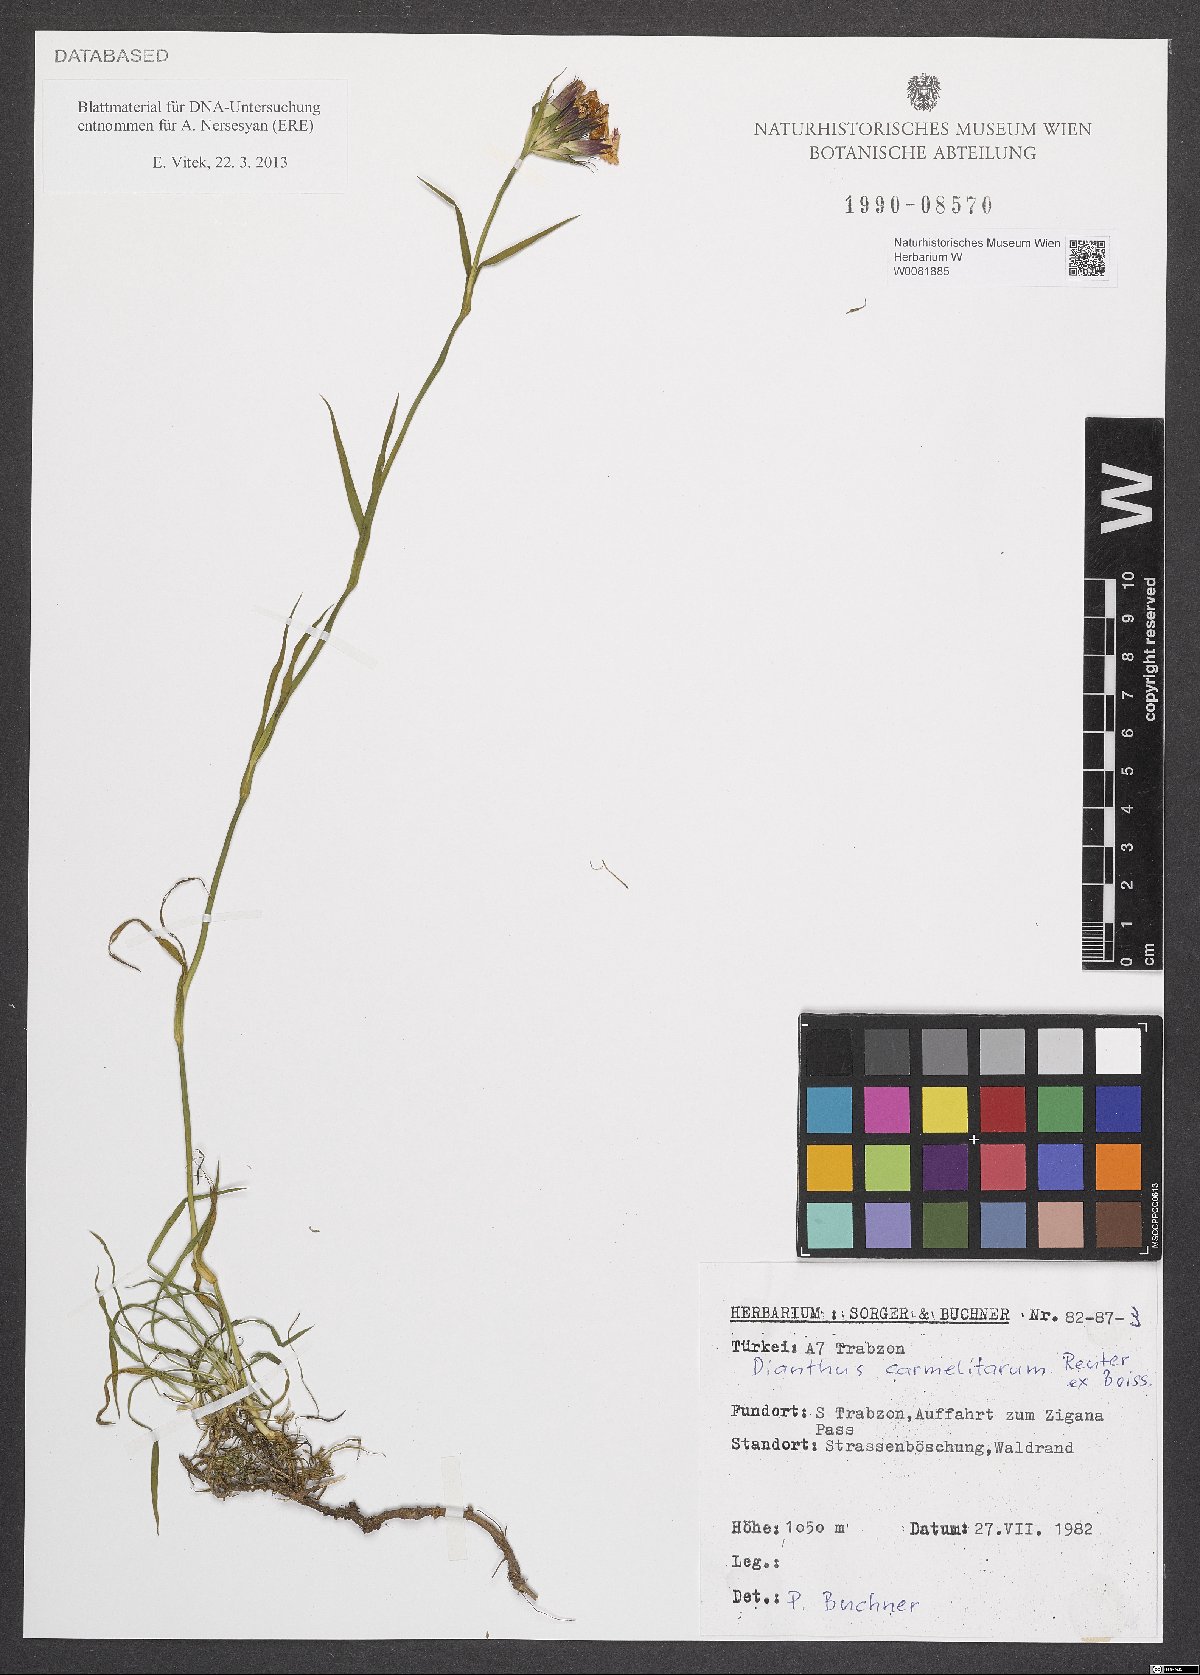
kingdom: Plantae
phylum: Tracheophyta
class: Magnoliopsida
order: Caryophyllales
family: Caryophyllaceae
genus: Dianthus
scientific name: Dianthus carmelitarum
